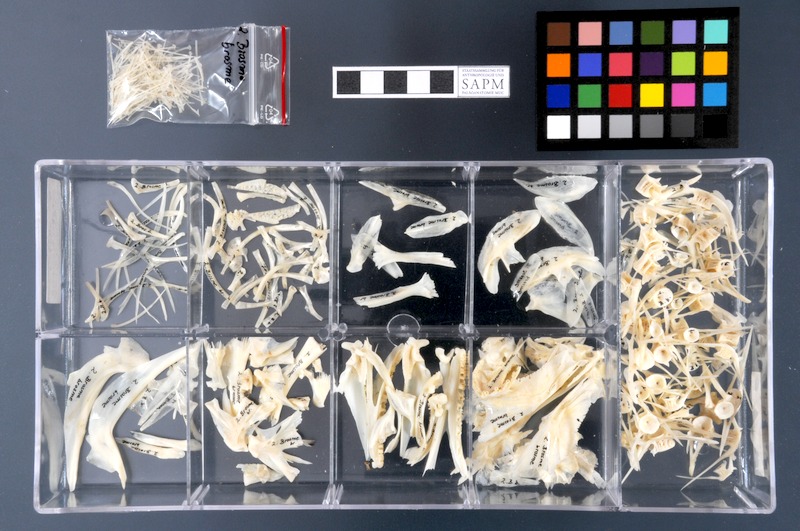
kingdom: Animalia
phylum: Chordata
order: Gadiformes
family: Lotidae
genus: Brosme
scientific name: Brosme brosme
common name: Cusk
